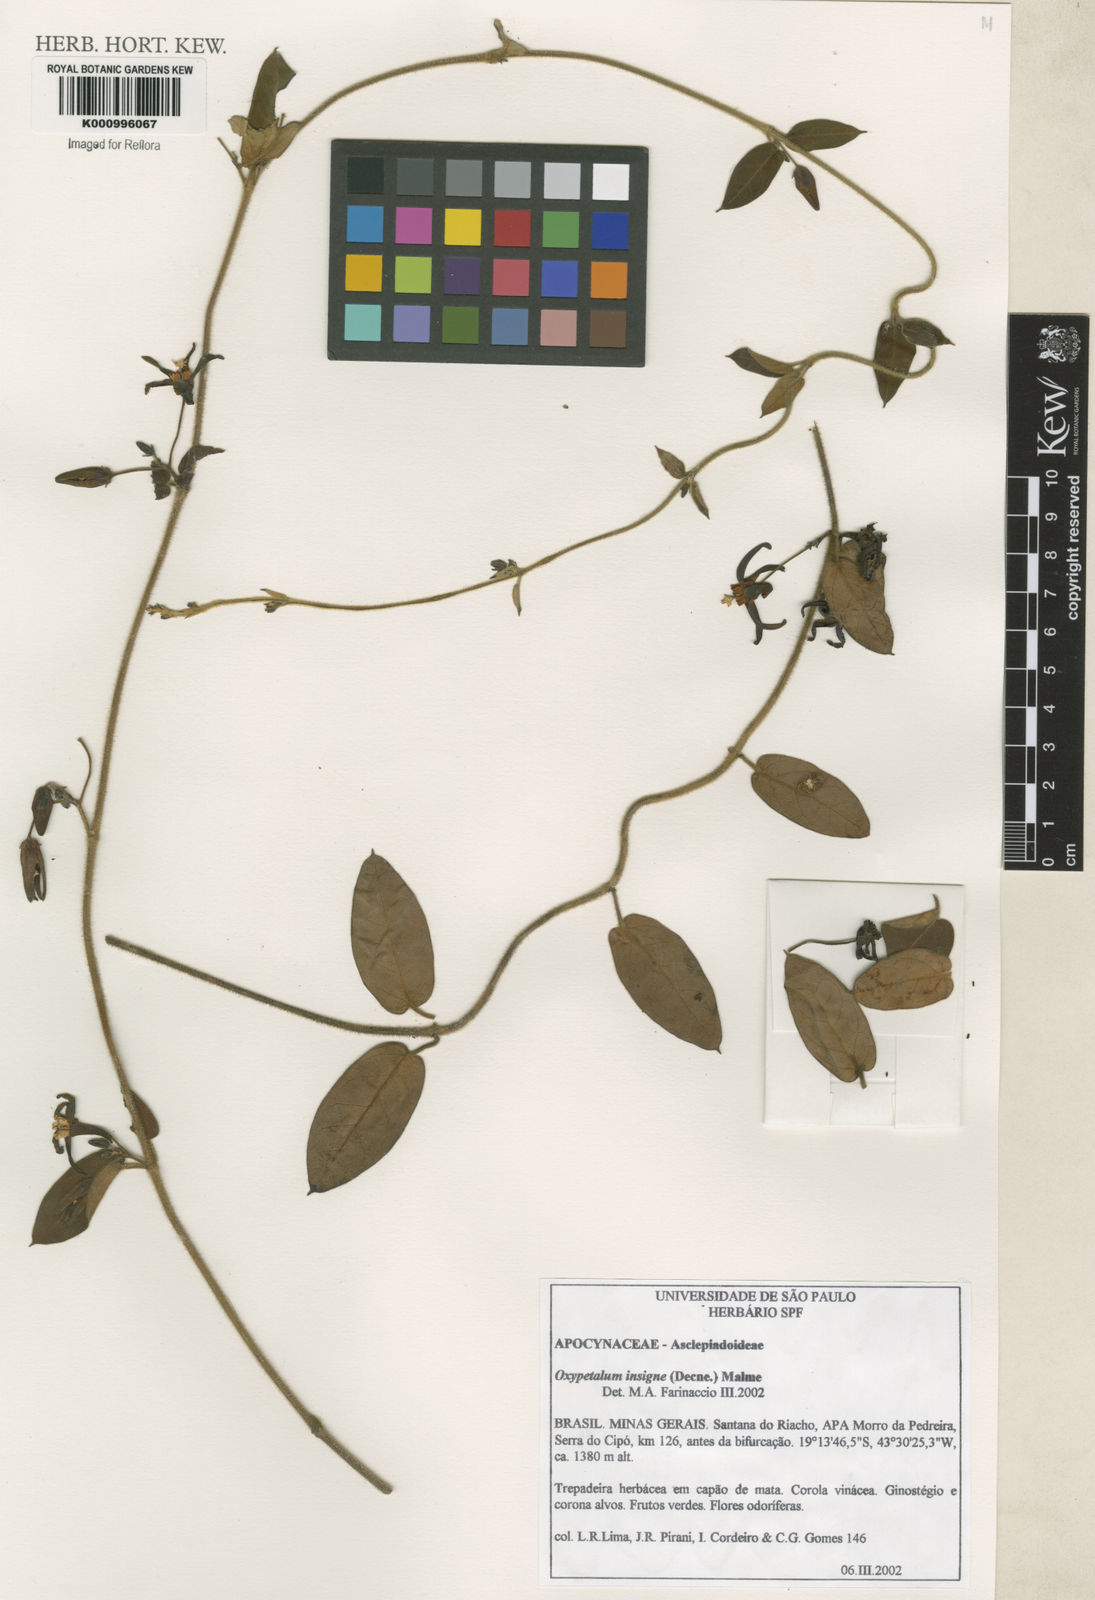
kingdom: Plantae
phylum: Tracheophyta
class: Magnoliopsida
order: Gentianales
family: Apocynaceae
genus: Oxypetalum
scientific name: Oxypetalum insigne
